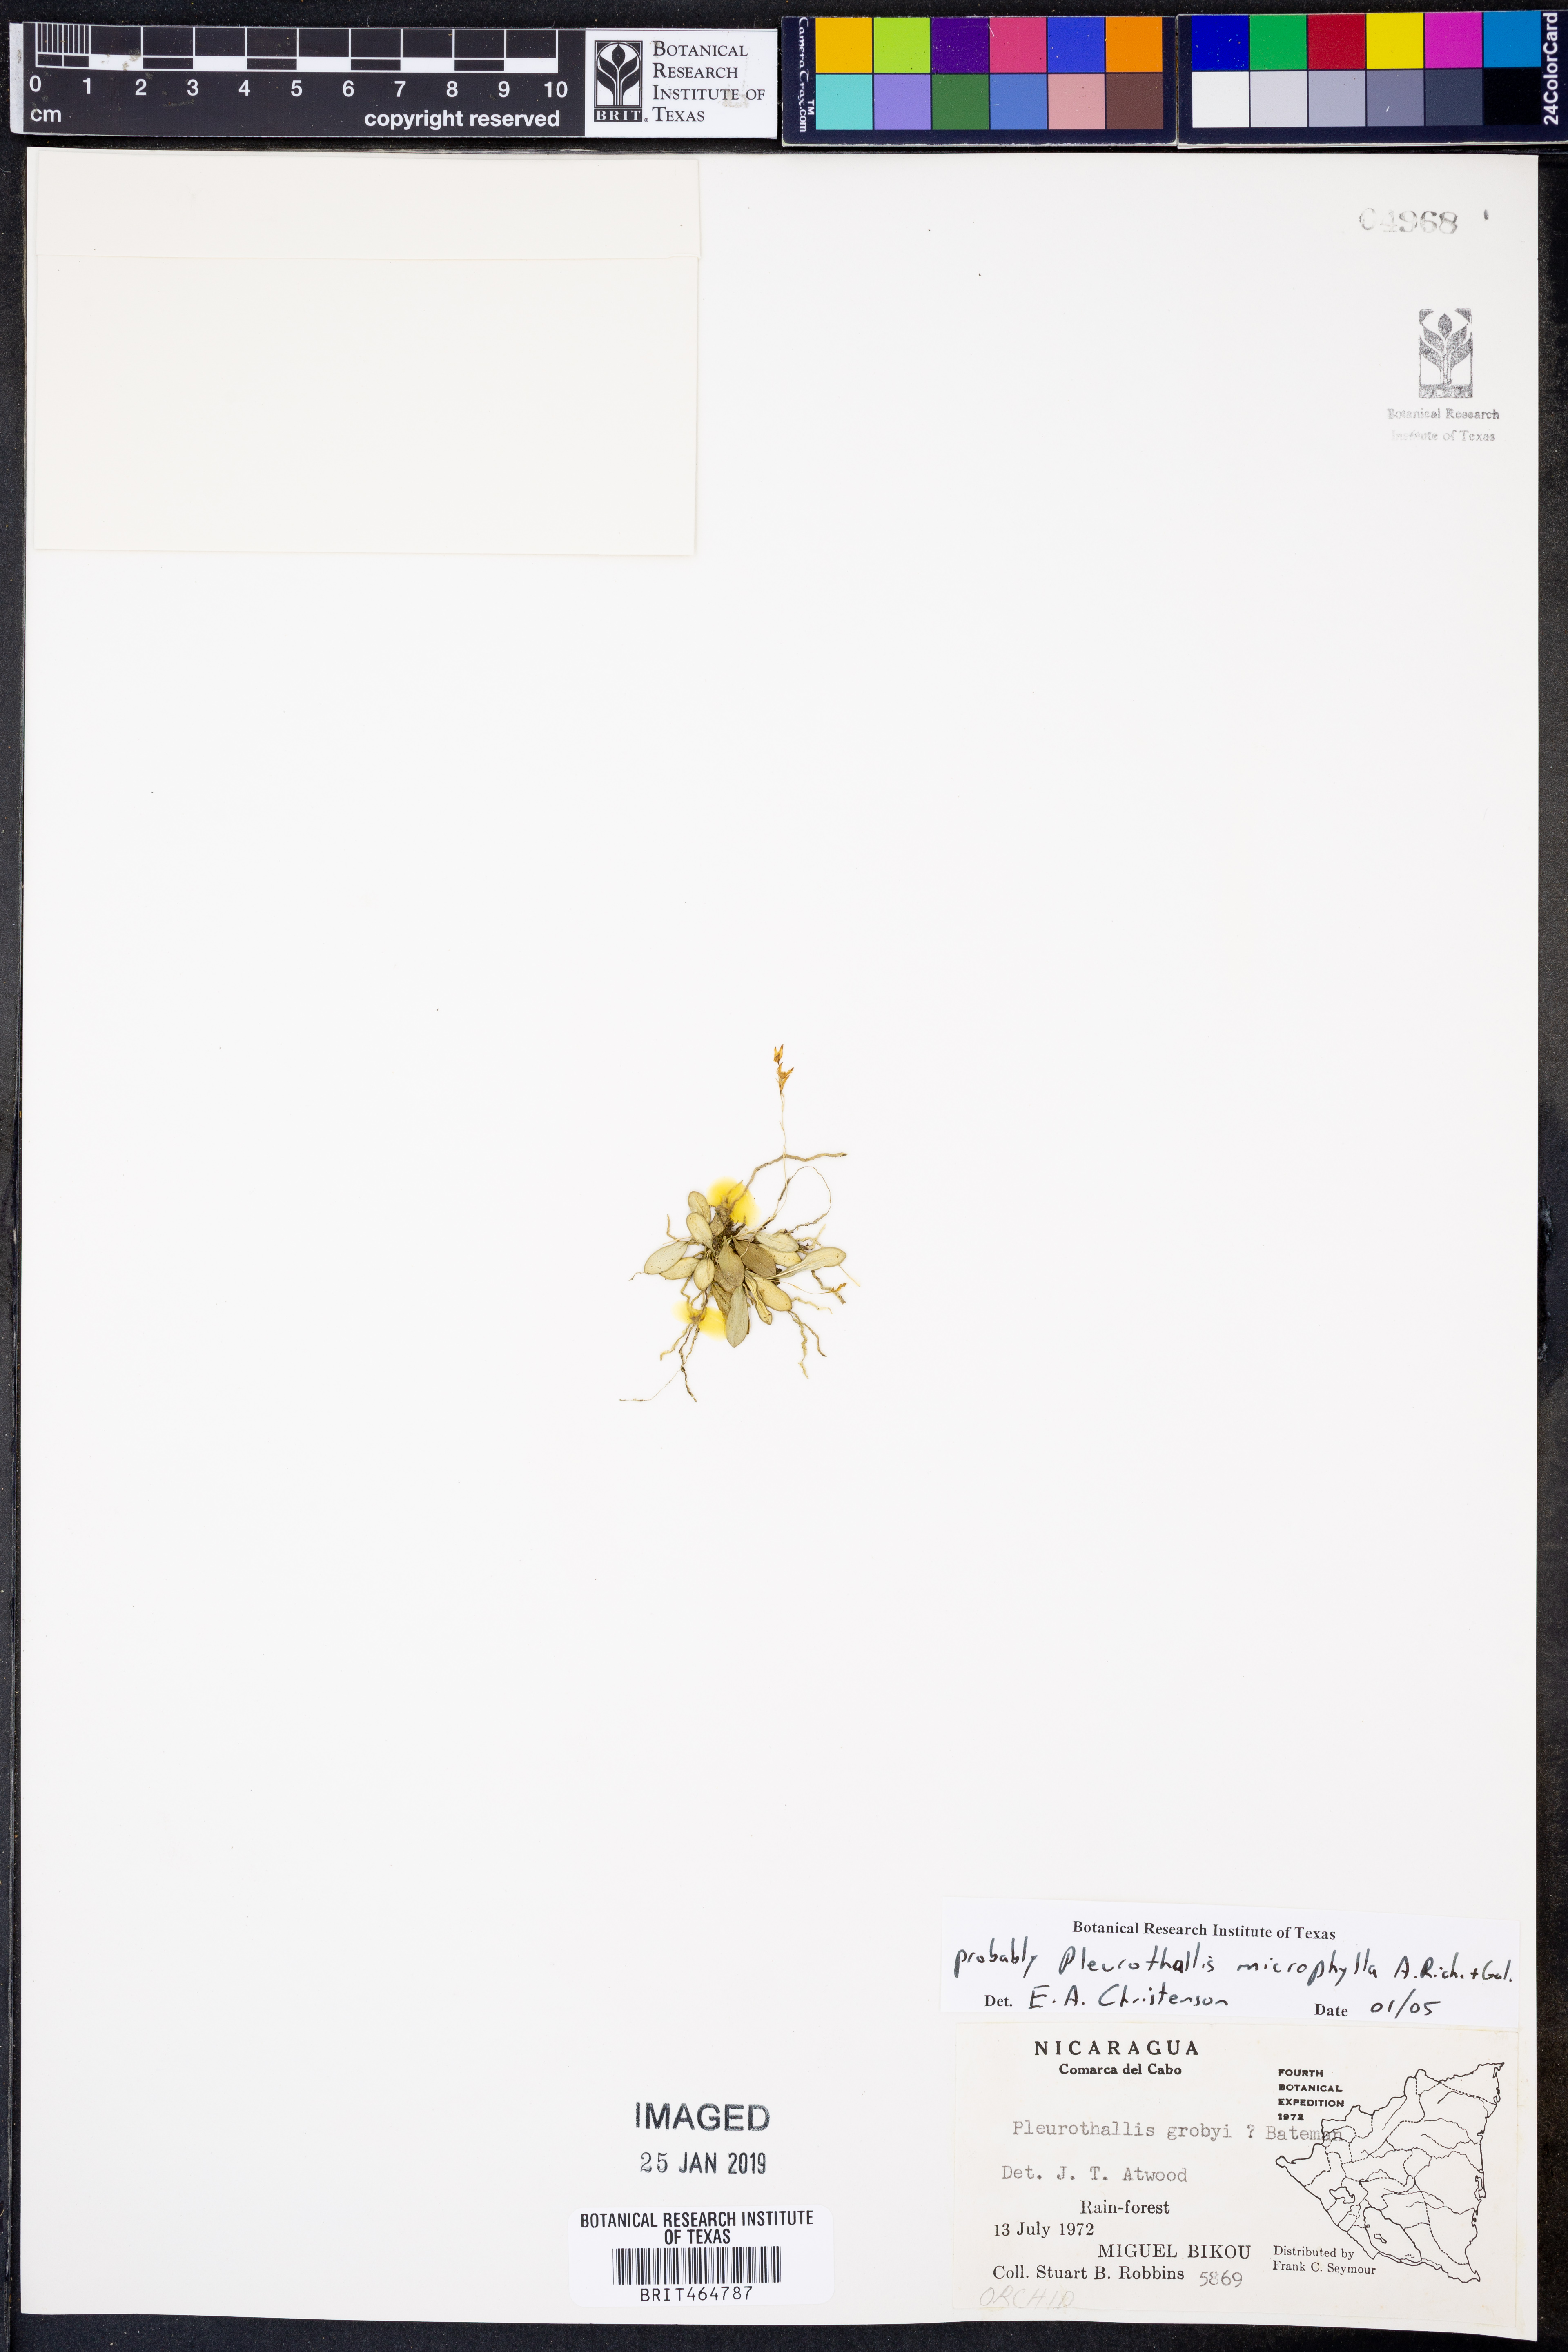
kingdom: Plantae
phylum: Tracheophyta
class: Liliopsida
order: Asparagales
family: Orchidaceae
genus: Specklinia
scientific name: Specklinia microphylla
